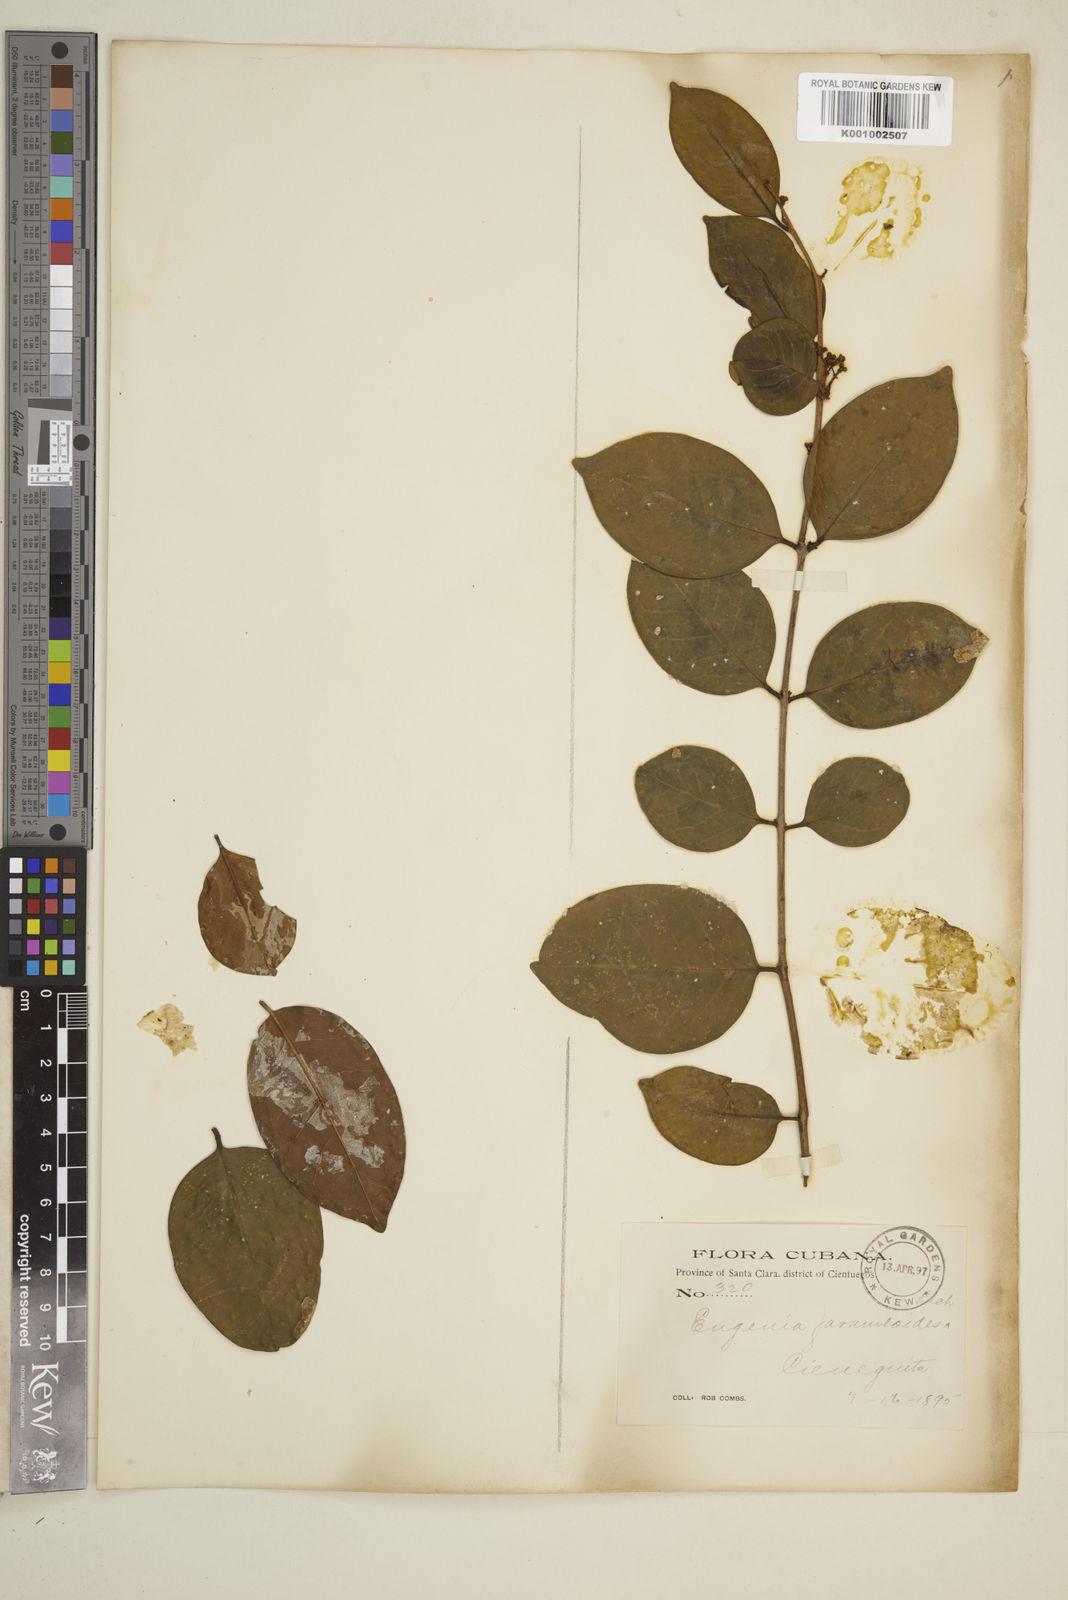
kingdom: Plantae
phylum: Tracheophyta
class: Magnoliopsida
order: Myrtales
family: Myrtaceae
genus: Eugenia
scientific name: Eugenia farameoides
